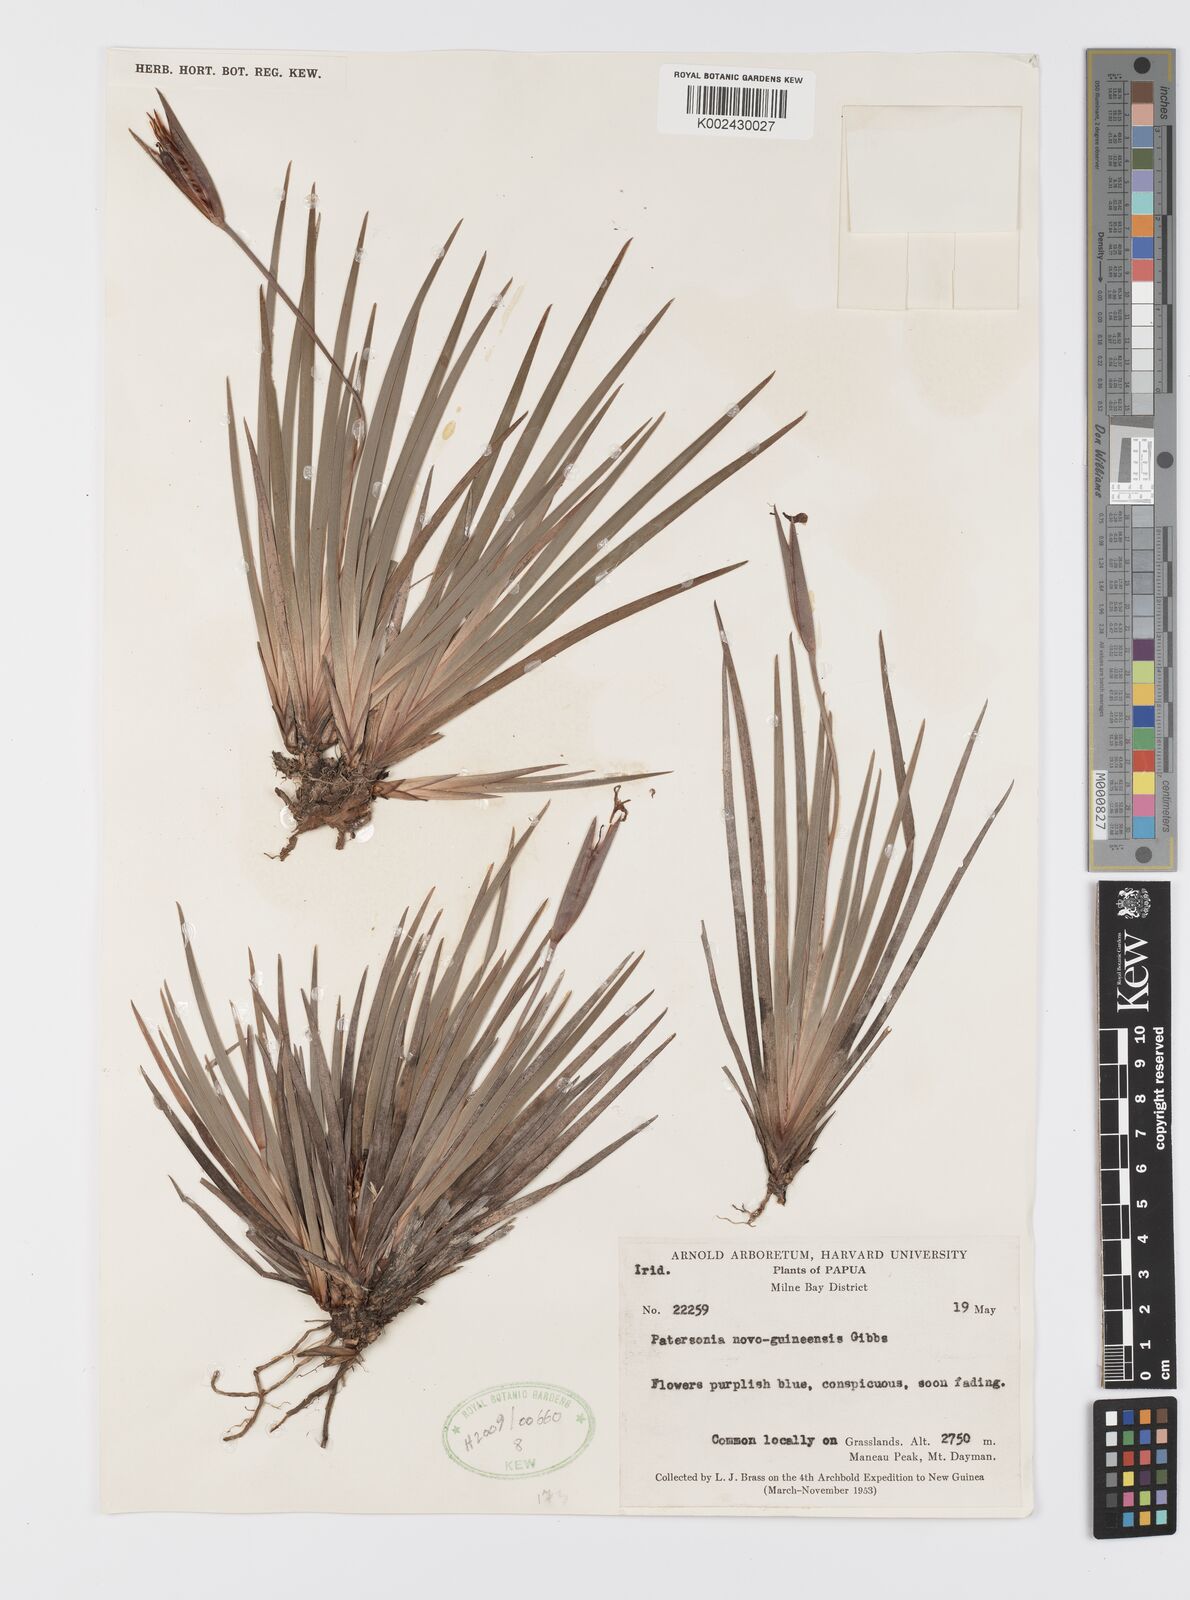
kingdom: Plantae
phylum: Tracheophyta
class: Liliopsida
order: Asparagales
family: Iridaceae
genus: Patersonia
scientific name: Patersonia novoguineensis
